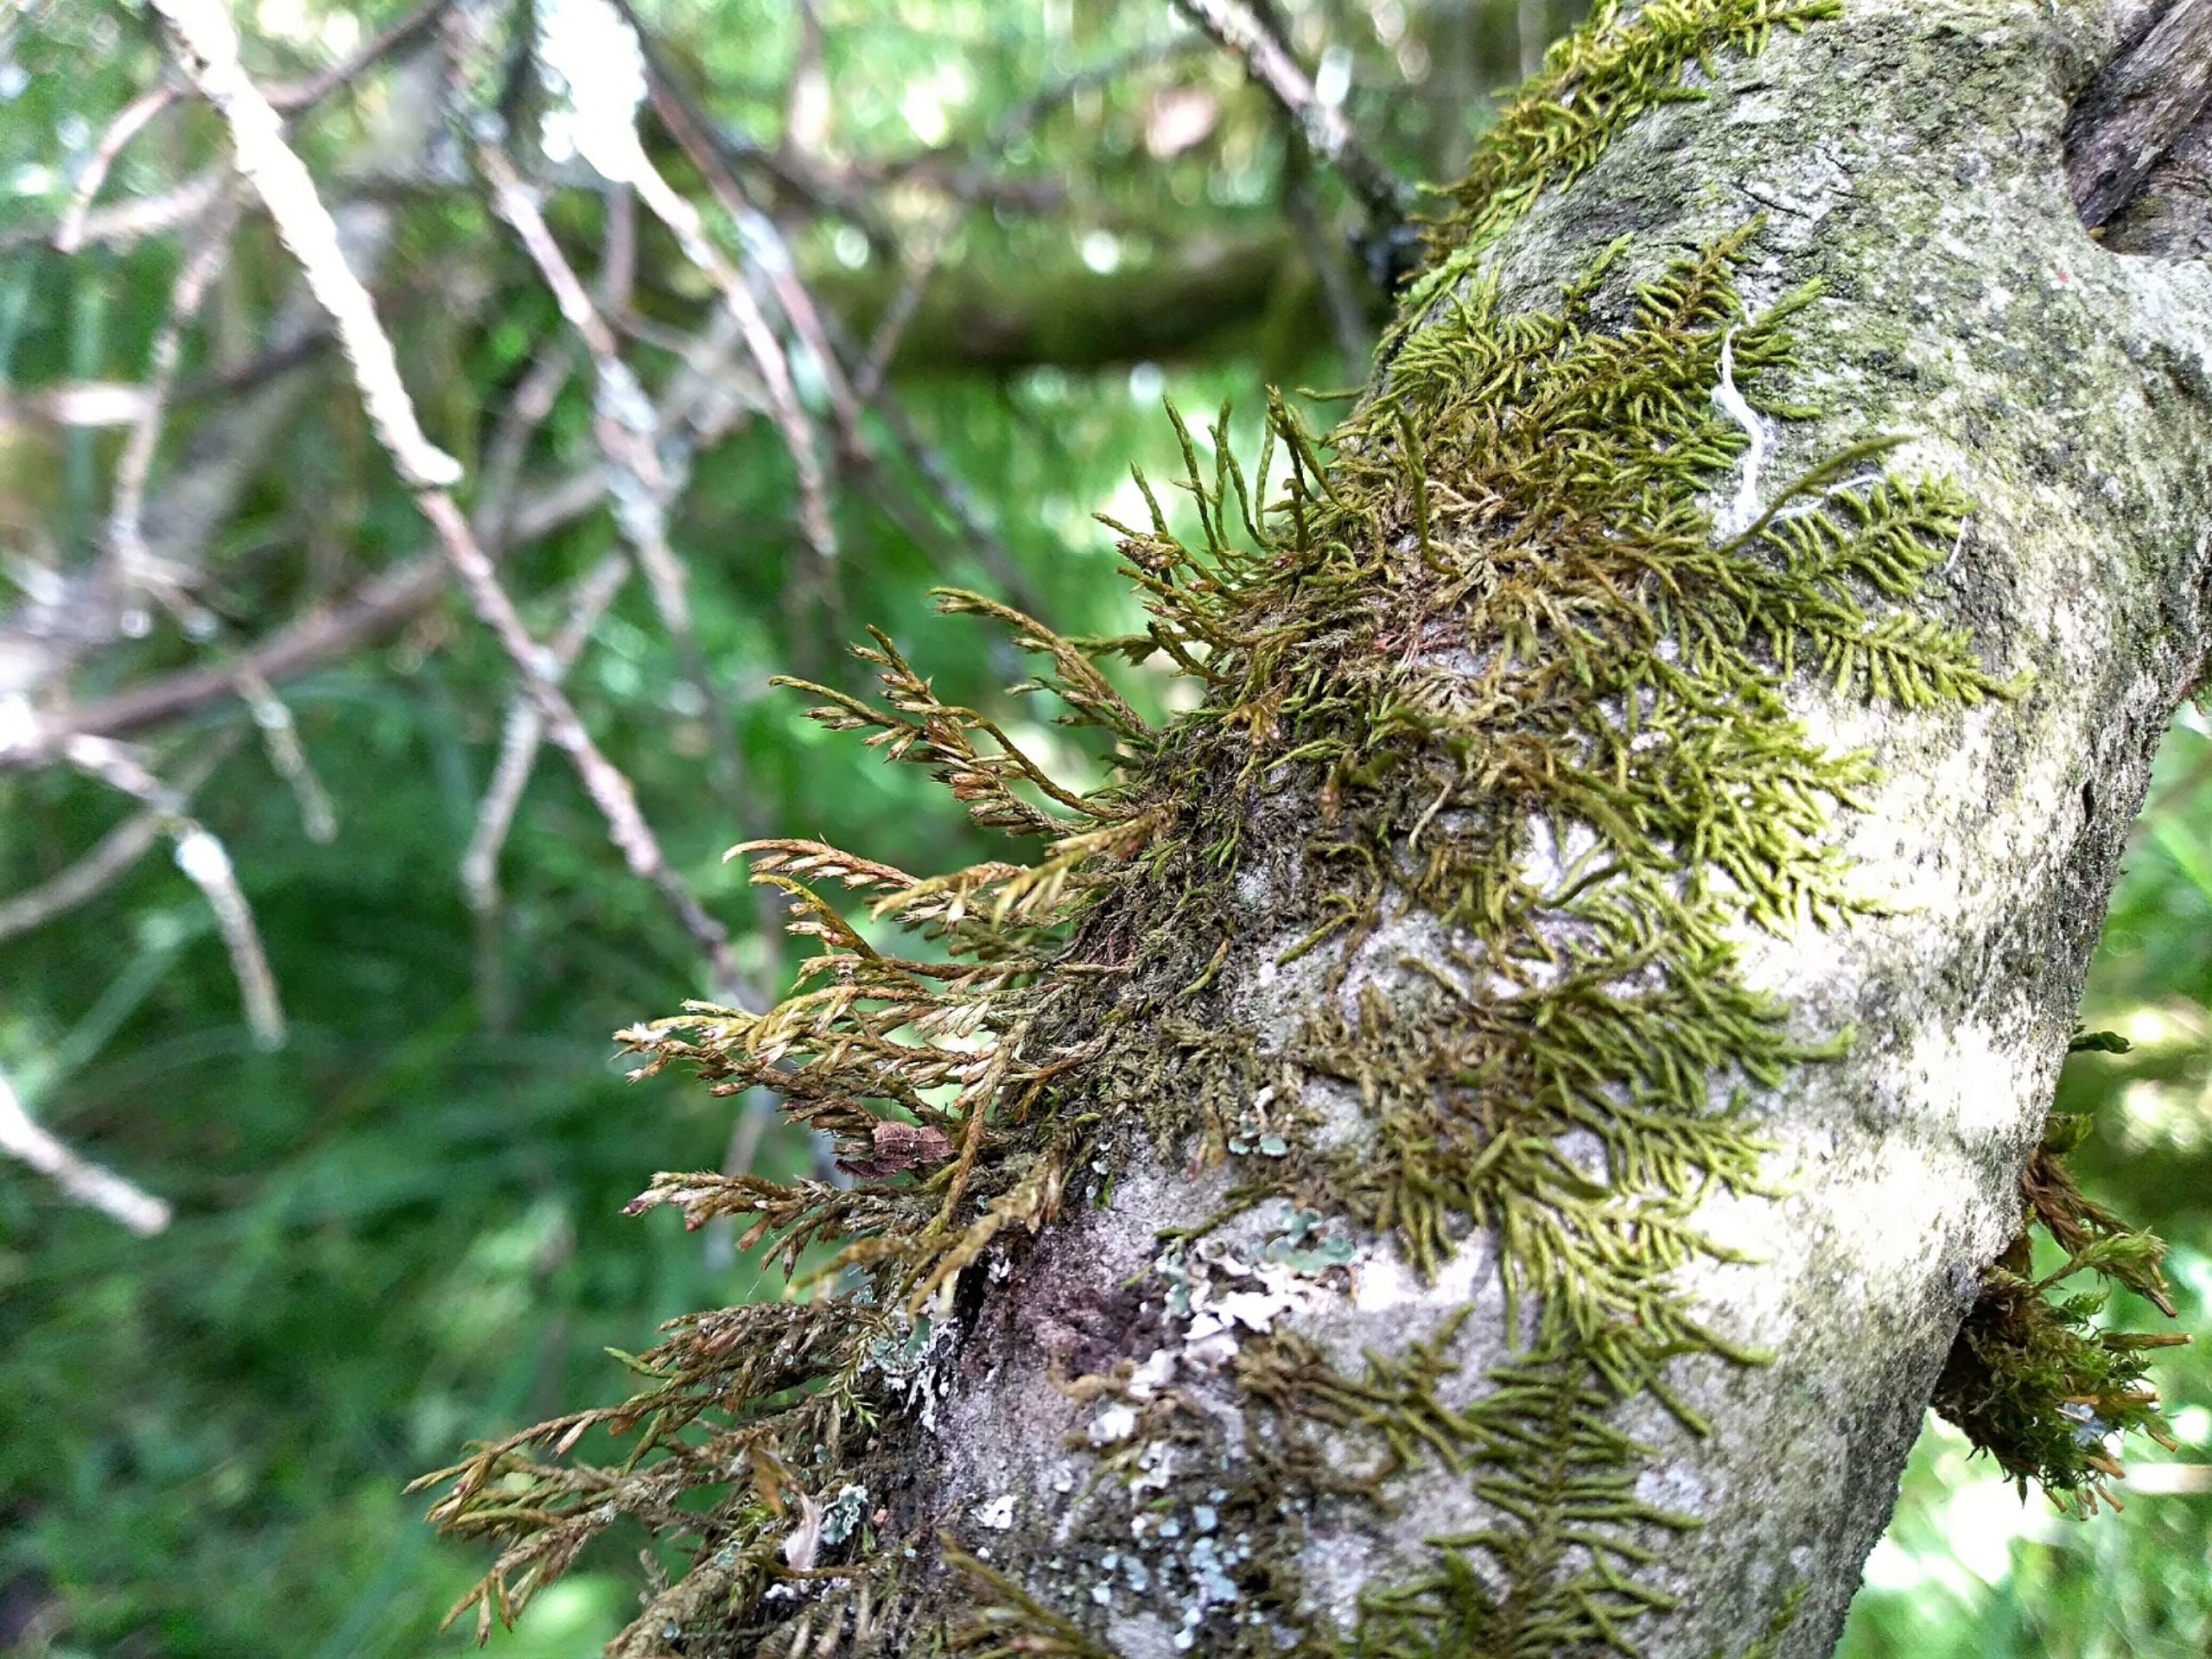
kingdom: Plantae
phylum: Bryophyta
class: Bryopsida
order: Hypnales
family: Cryphaeaceae
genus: Cryphaea
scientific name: Cryphaea heteromalla
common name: Bark-dækmos
